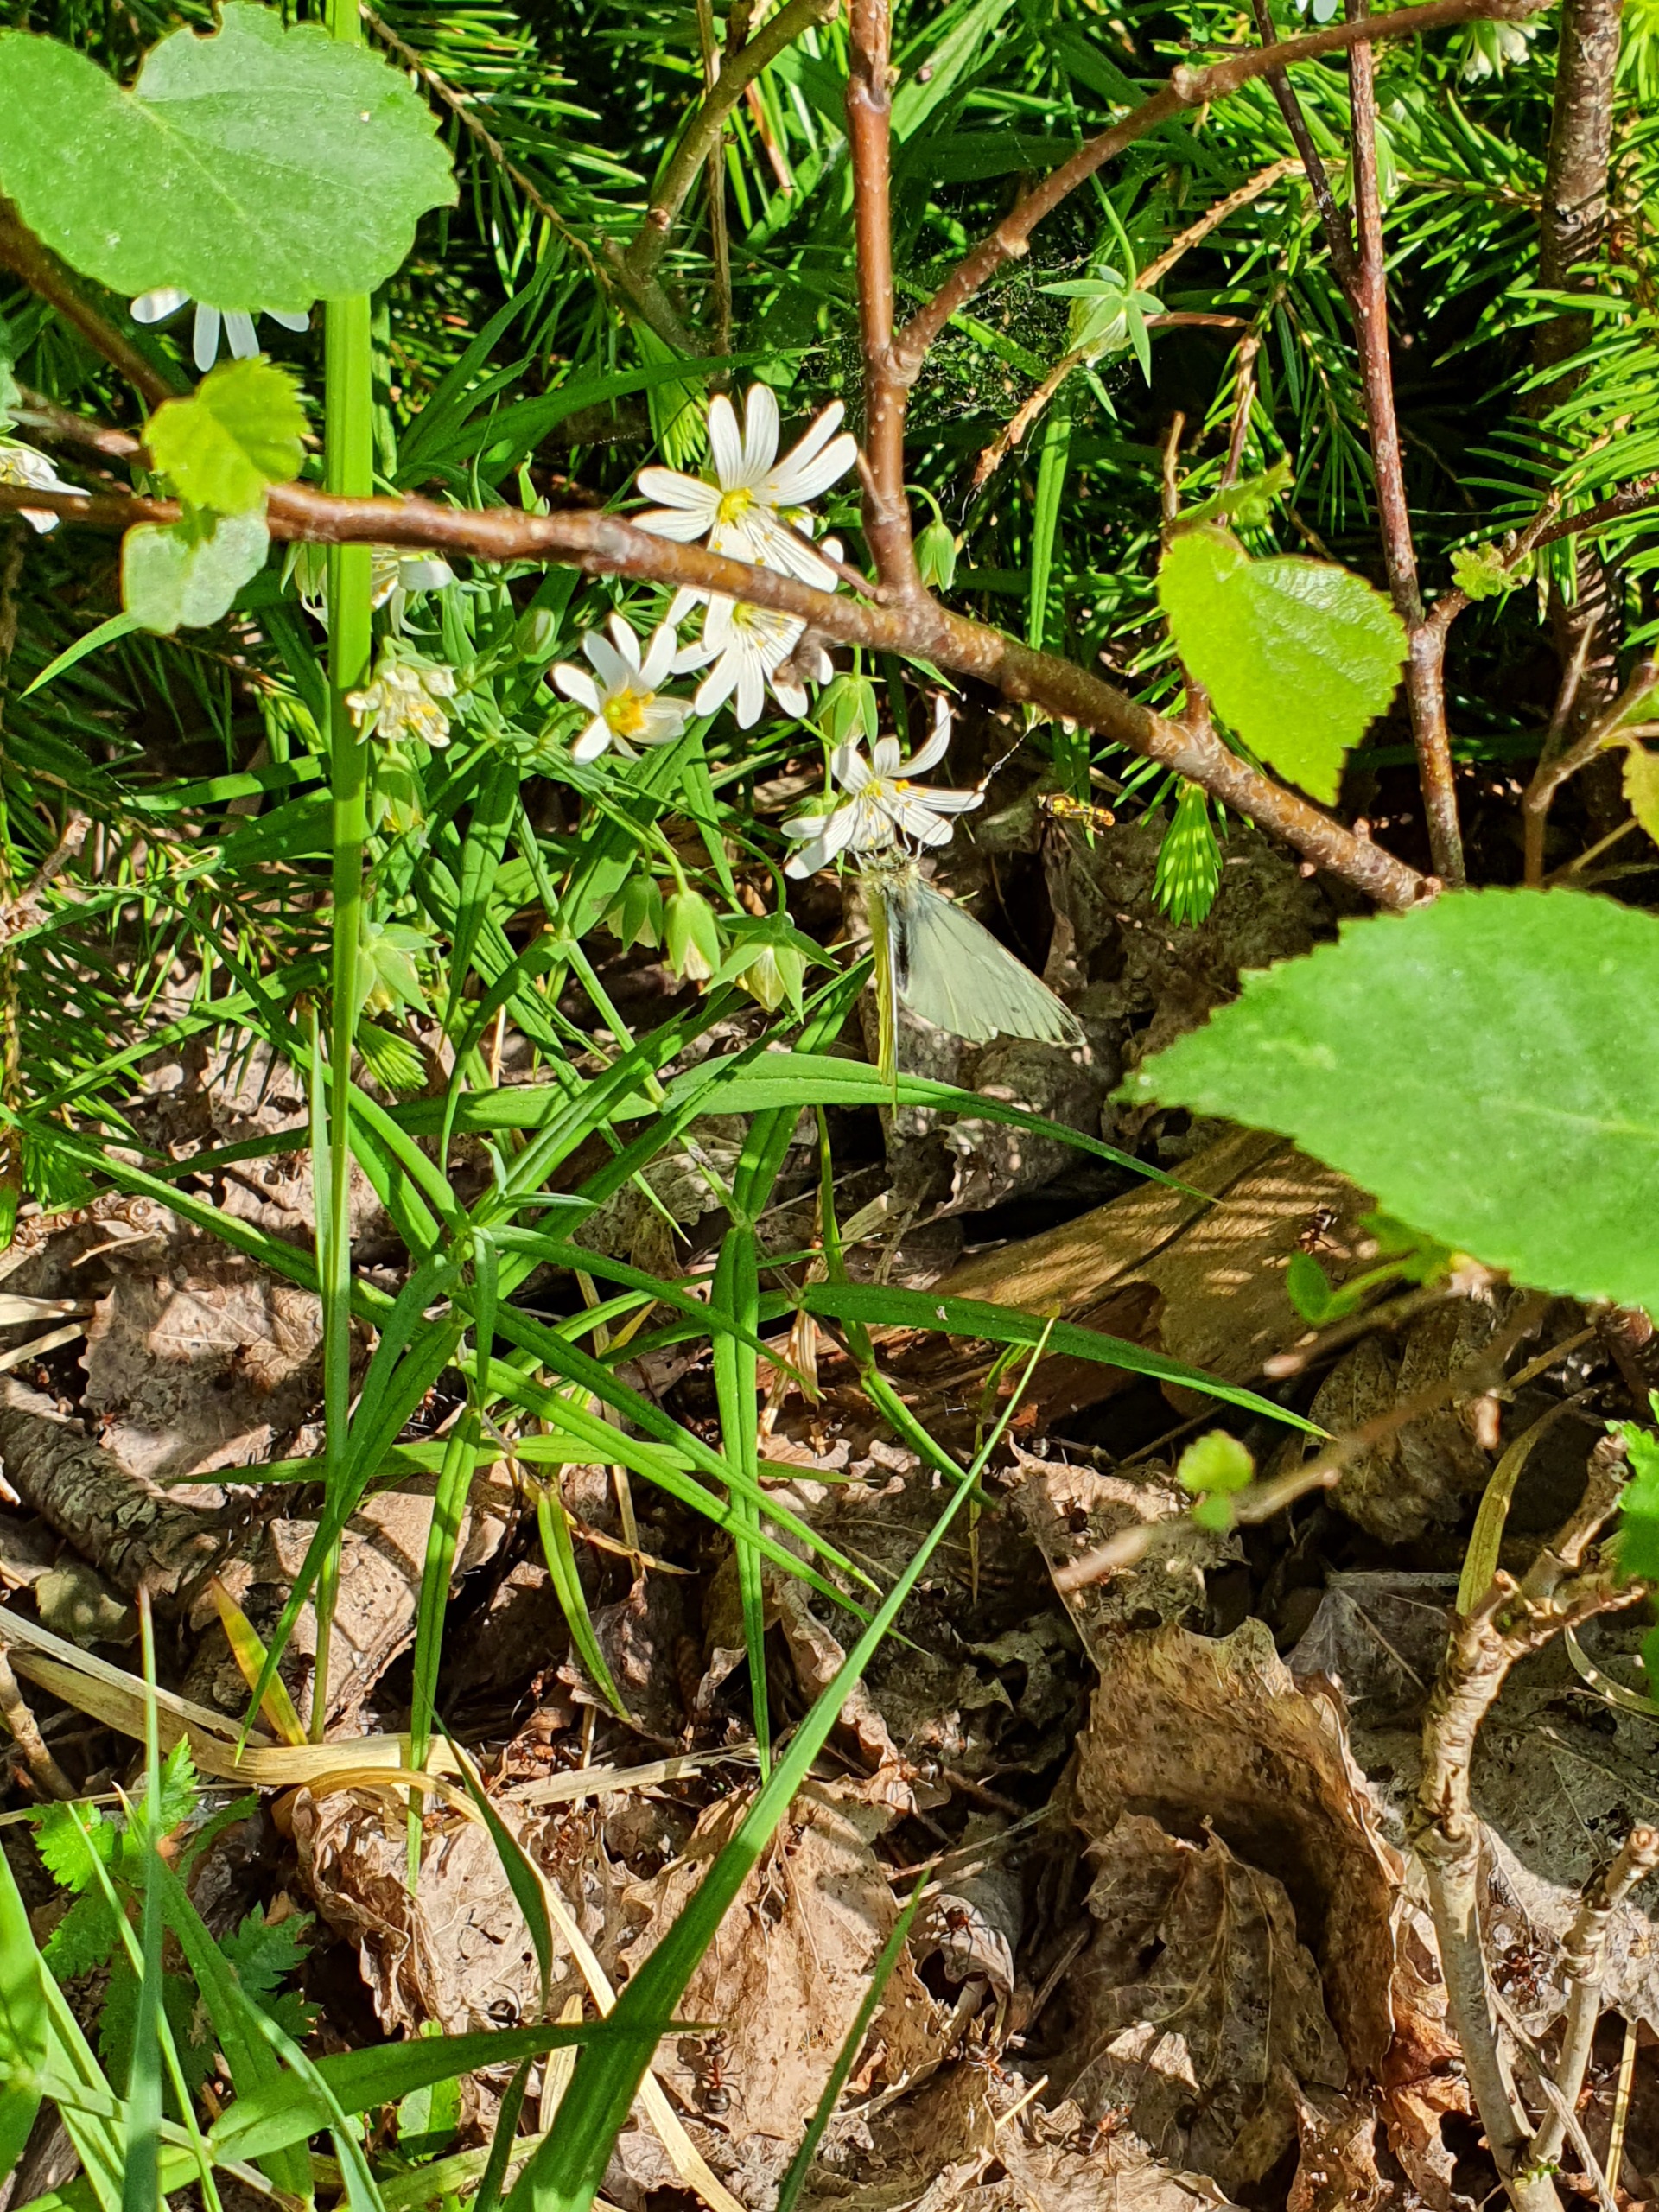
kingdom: Animalia
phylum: Arthropoda
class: Insecta
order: Lepidoptera
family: Pieridae
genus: Pieris
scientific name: Pieris napi
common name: Grønåret kålsommerfugl
